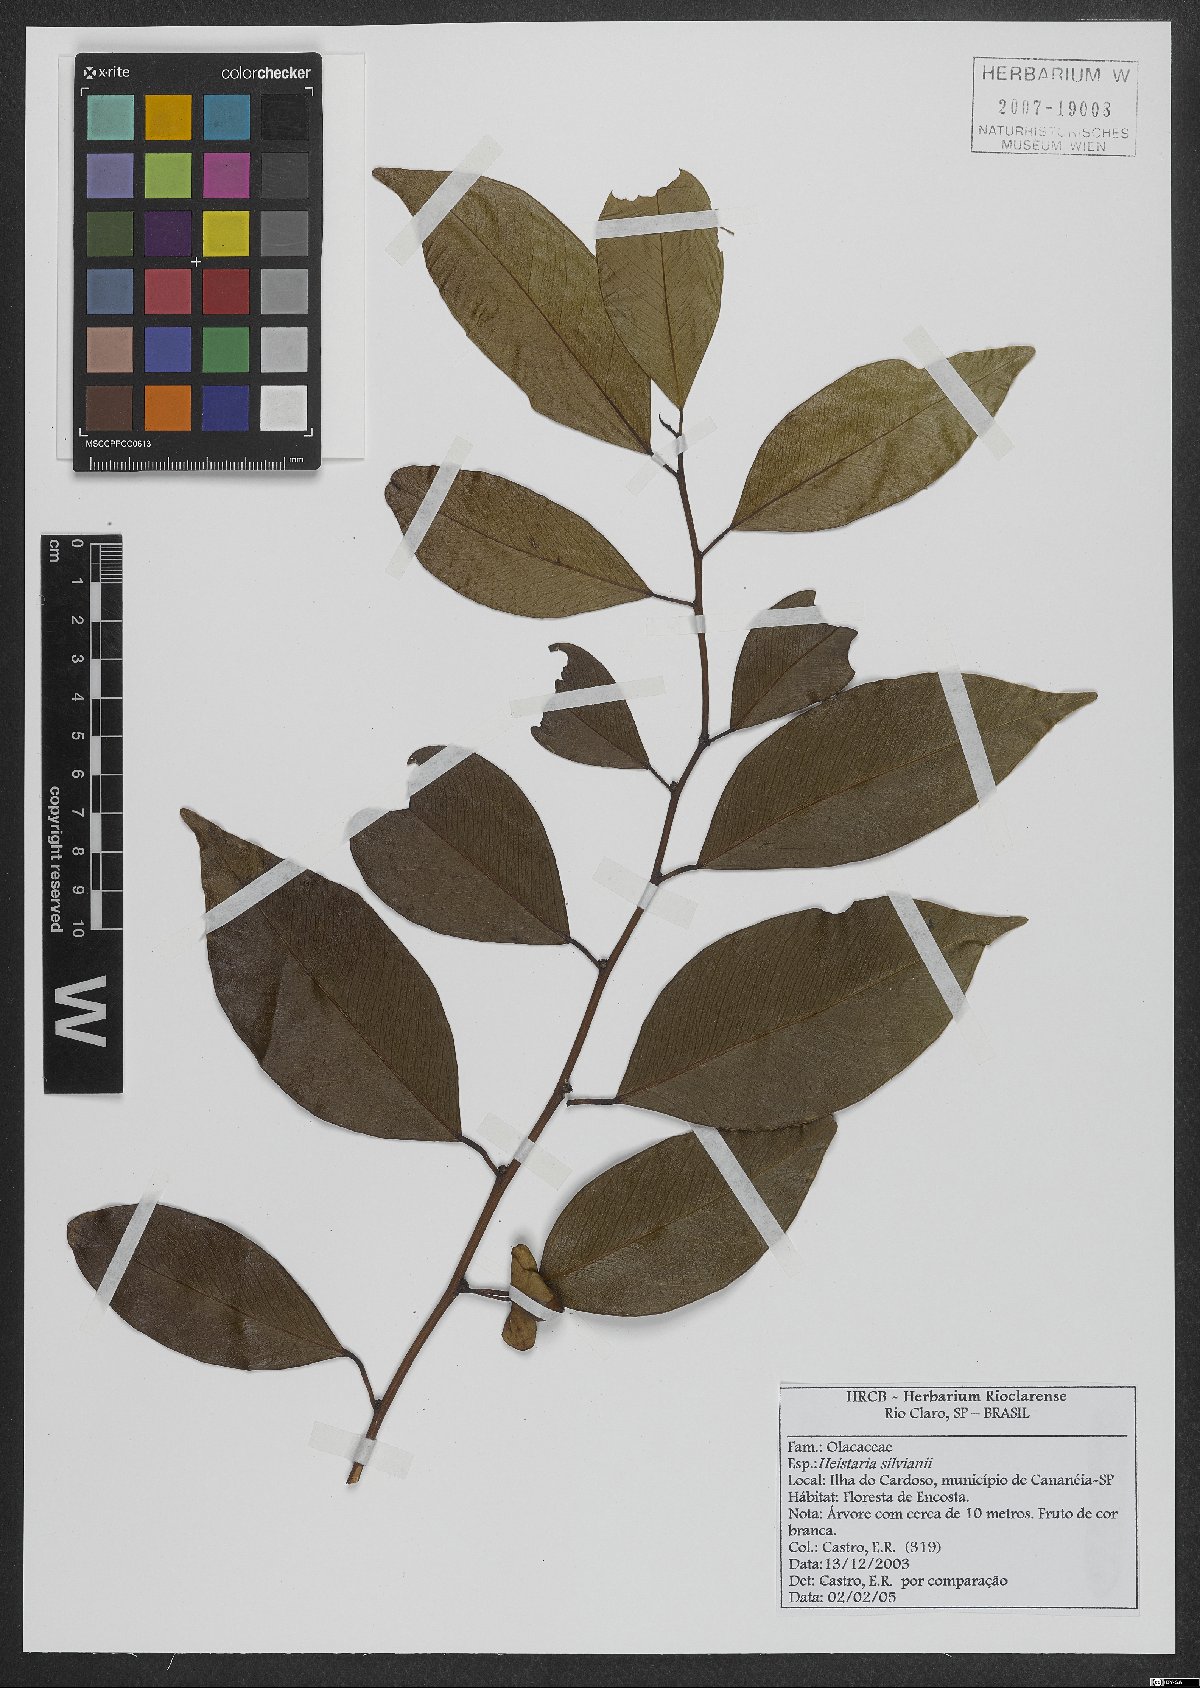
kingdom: Plantae
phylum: Tracheophyta
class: Magnoliopsida
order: Santalales
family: Erythropalaceae
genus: Heisteria
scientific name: Heisteria silvianii
